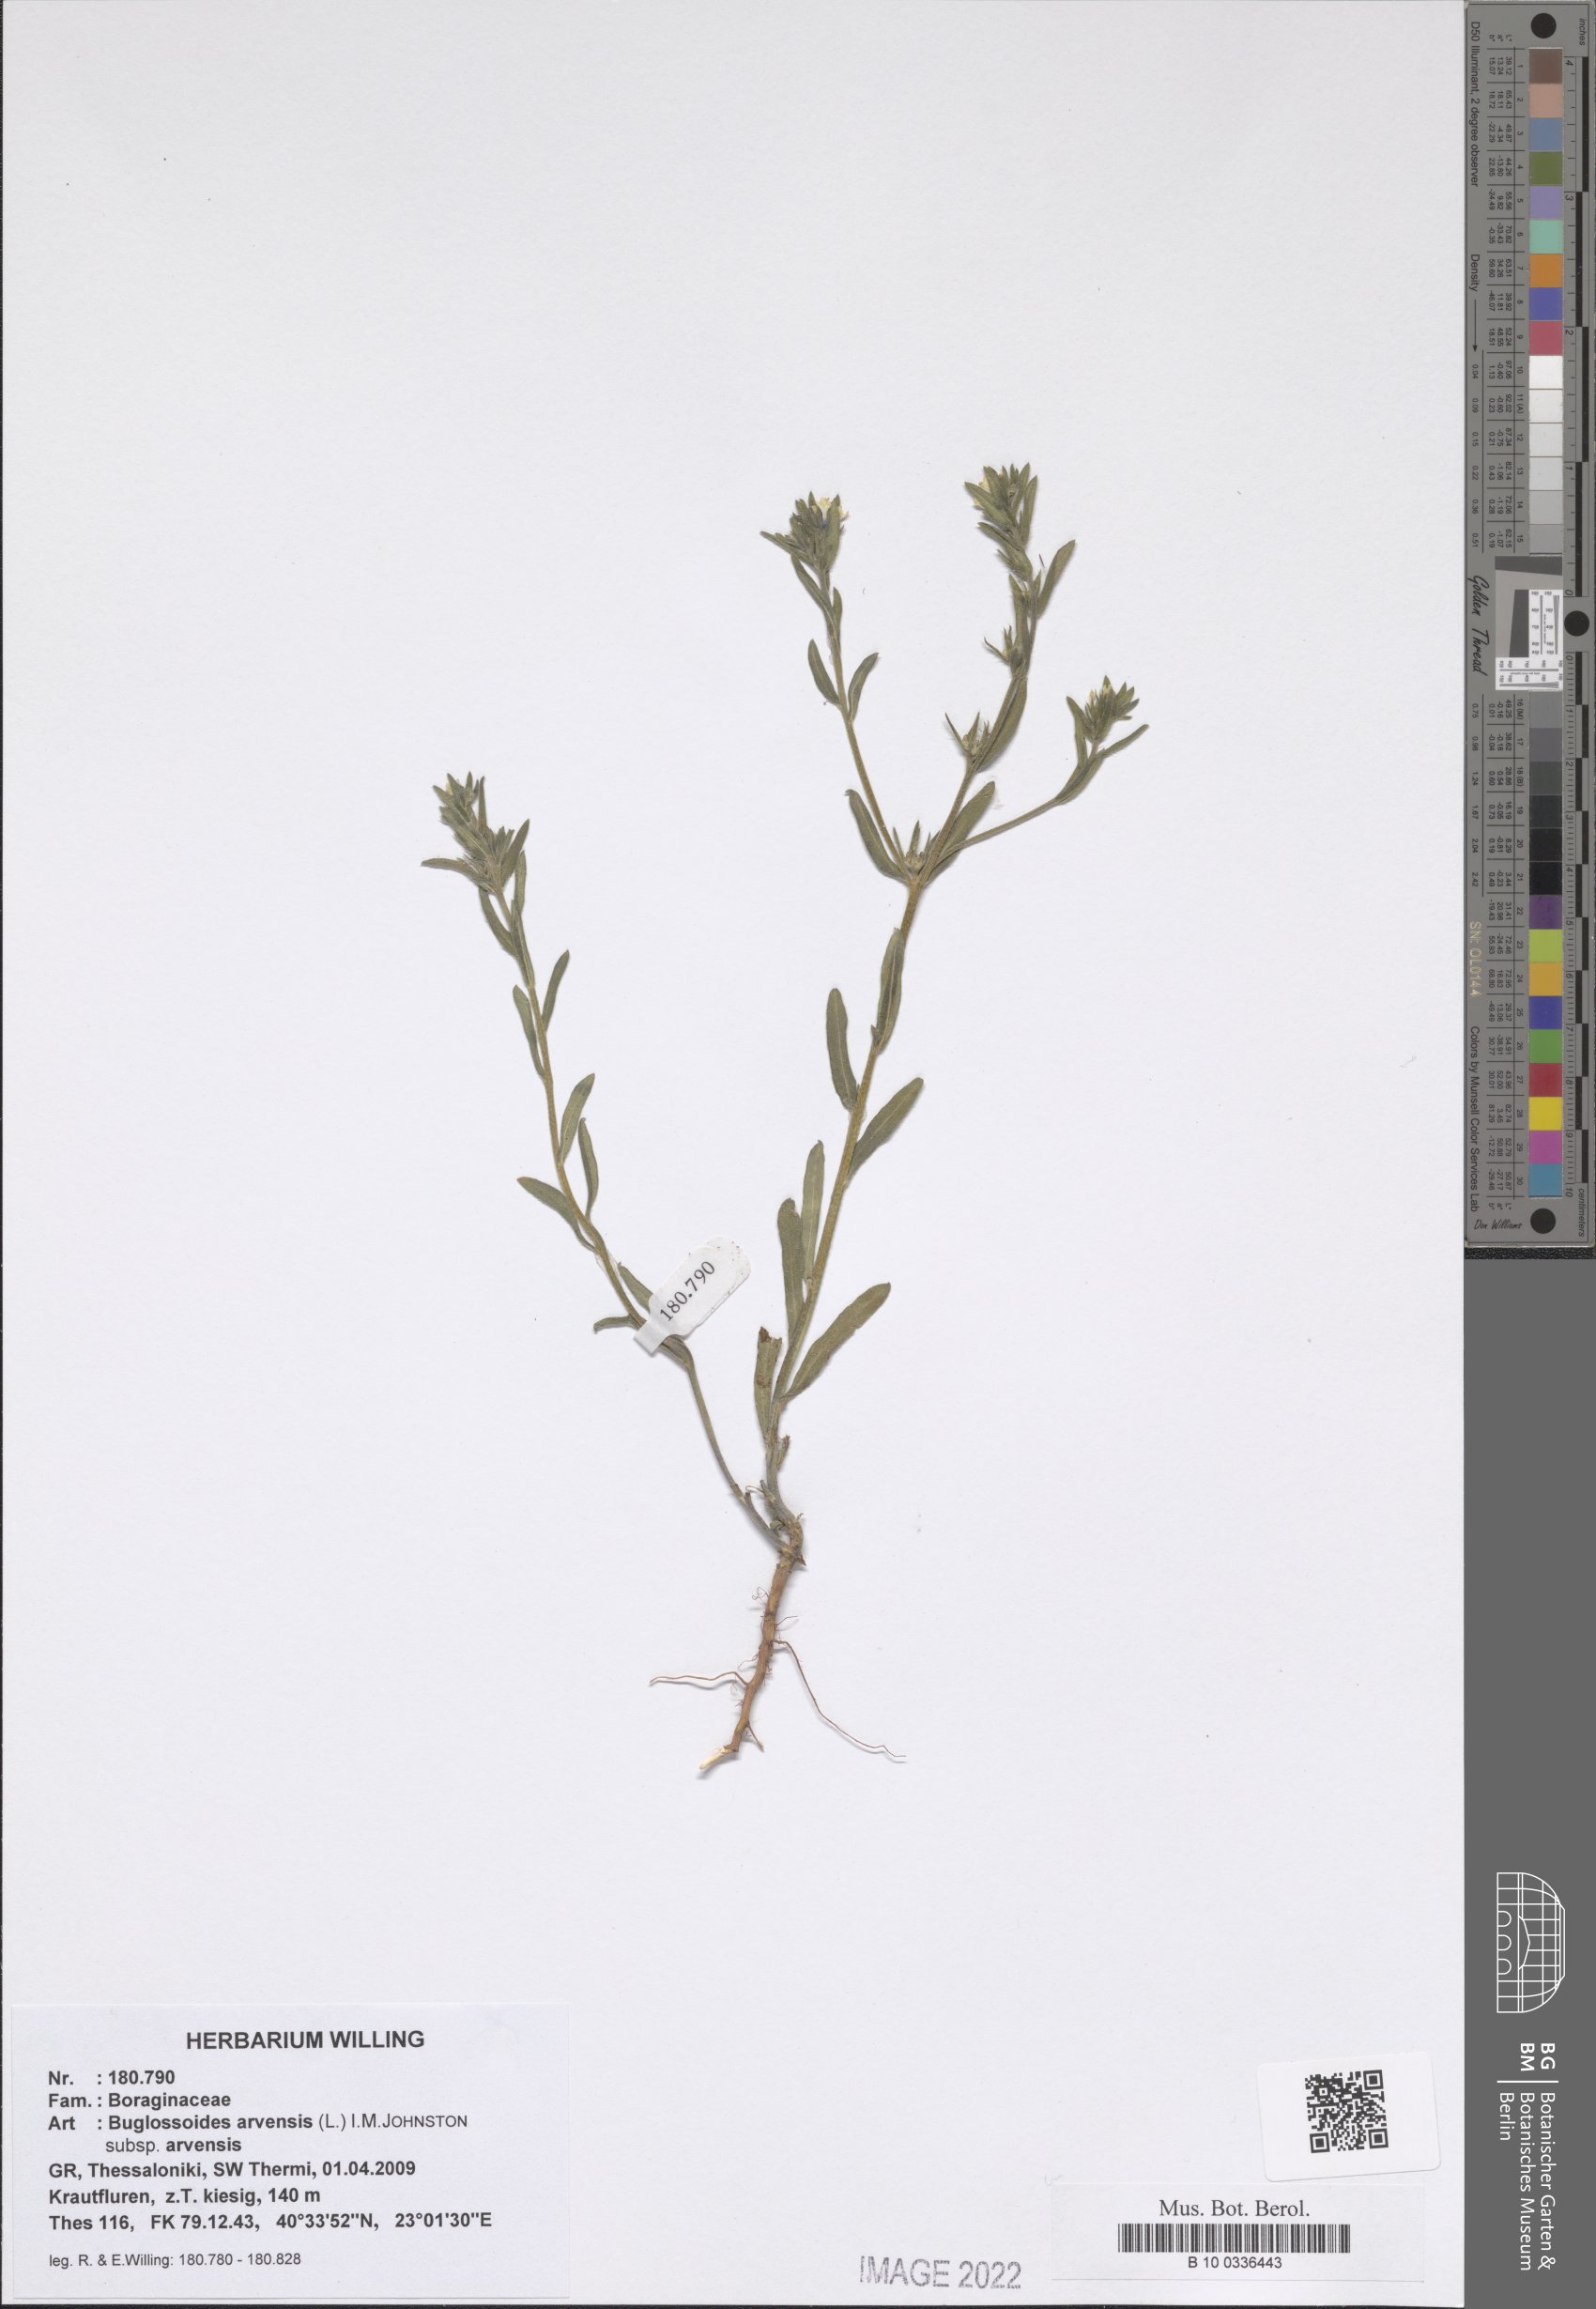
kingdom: Plantae
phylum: Tracheophyta
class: Magnoliopsida
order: Boraginales
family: Boraginaceae
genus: Buglossoides
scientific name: Buglossoides arvensis
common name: Corn gromwell
